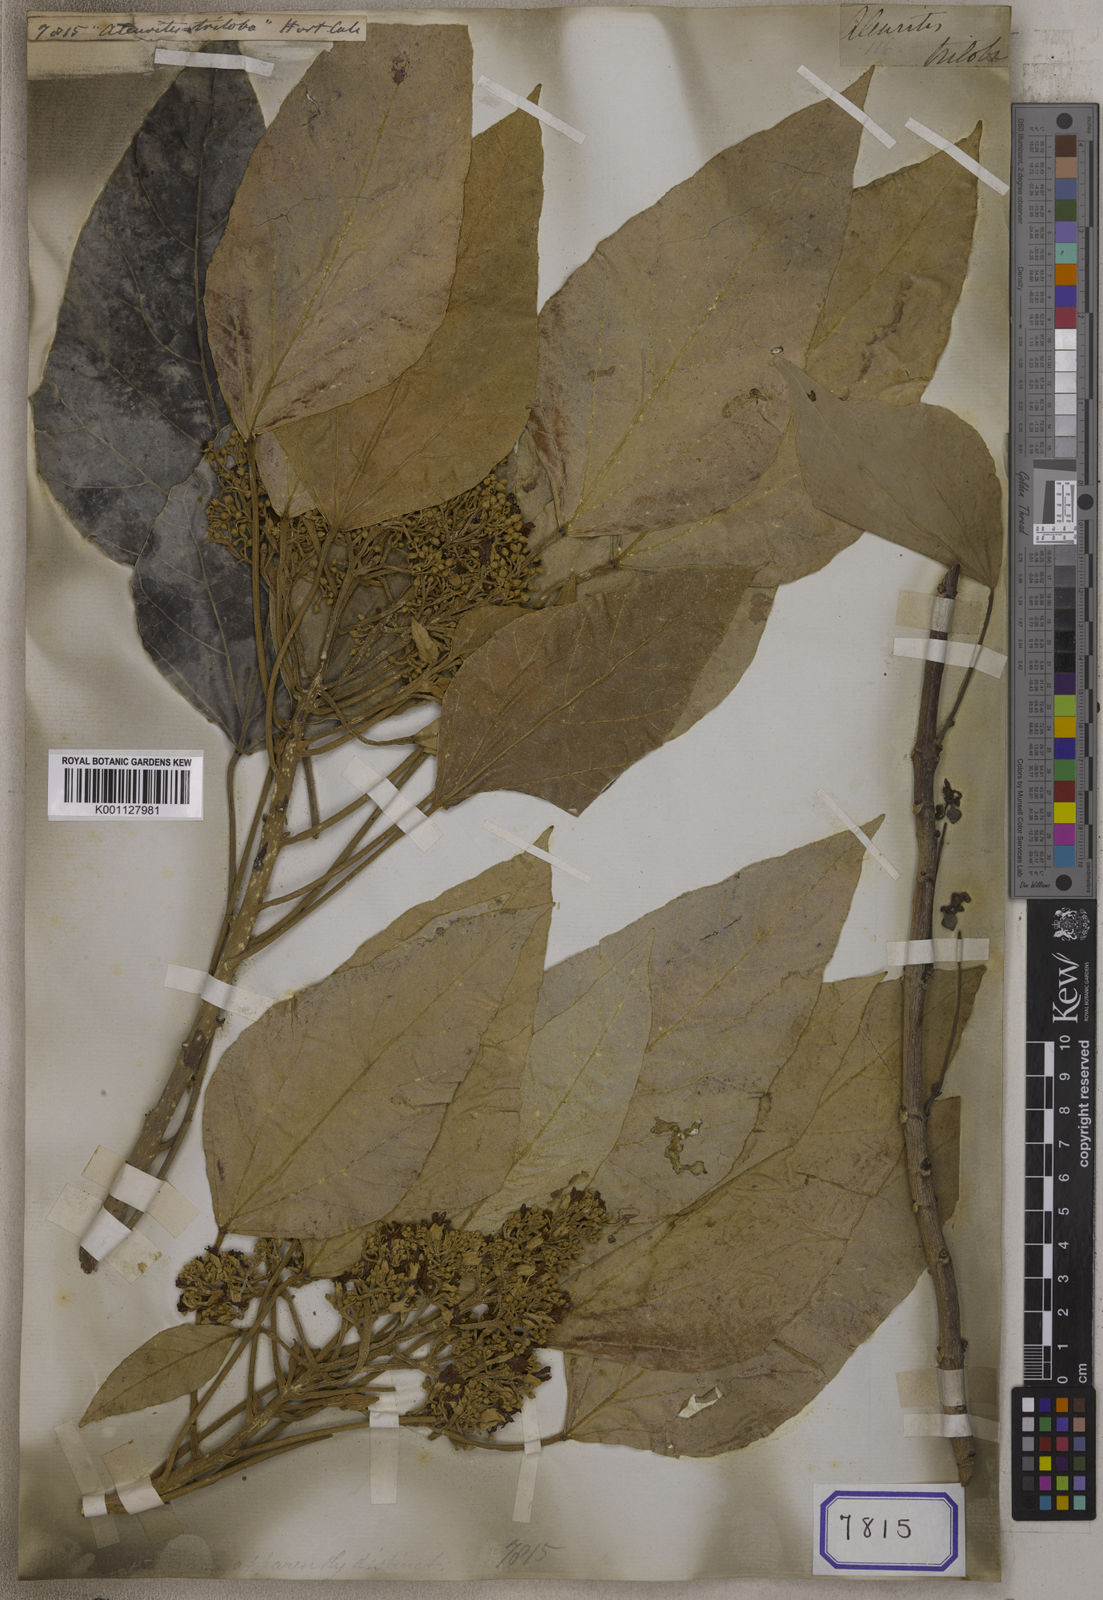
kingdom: Plantae
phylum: Tracheophyta
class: Magnoliopsida
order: Malpighiales
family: Euphorbiaceae
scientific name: Euphorbiaceae
